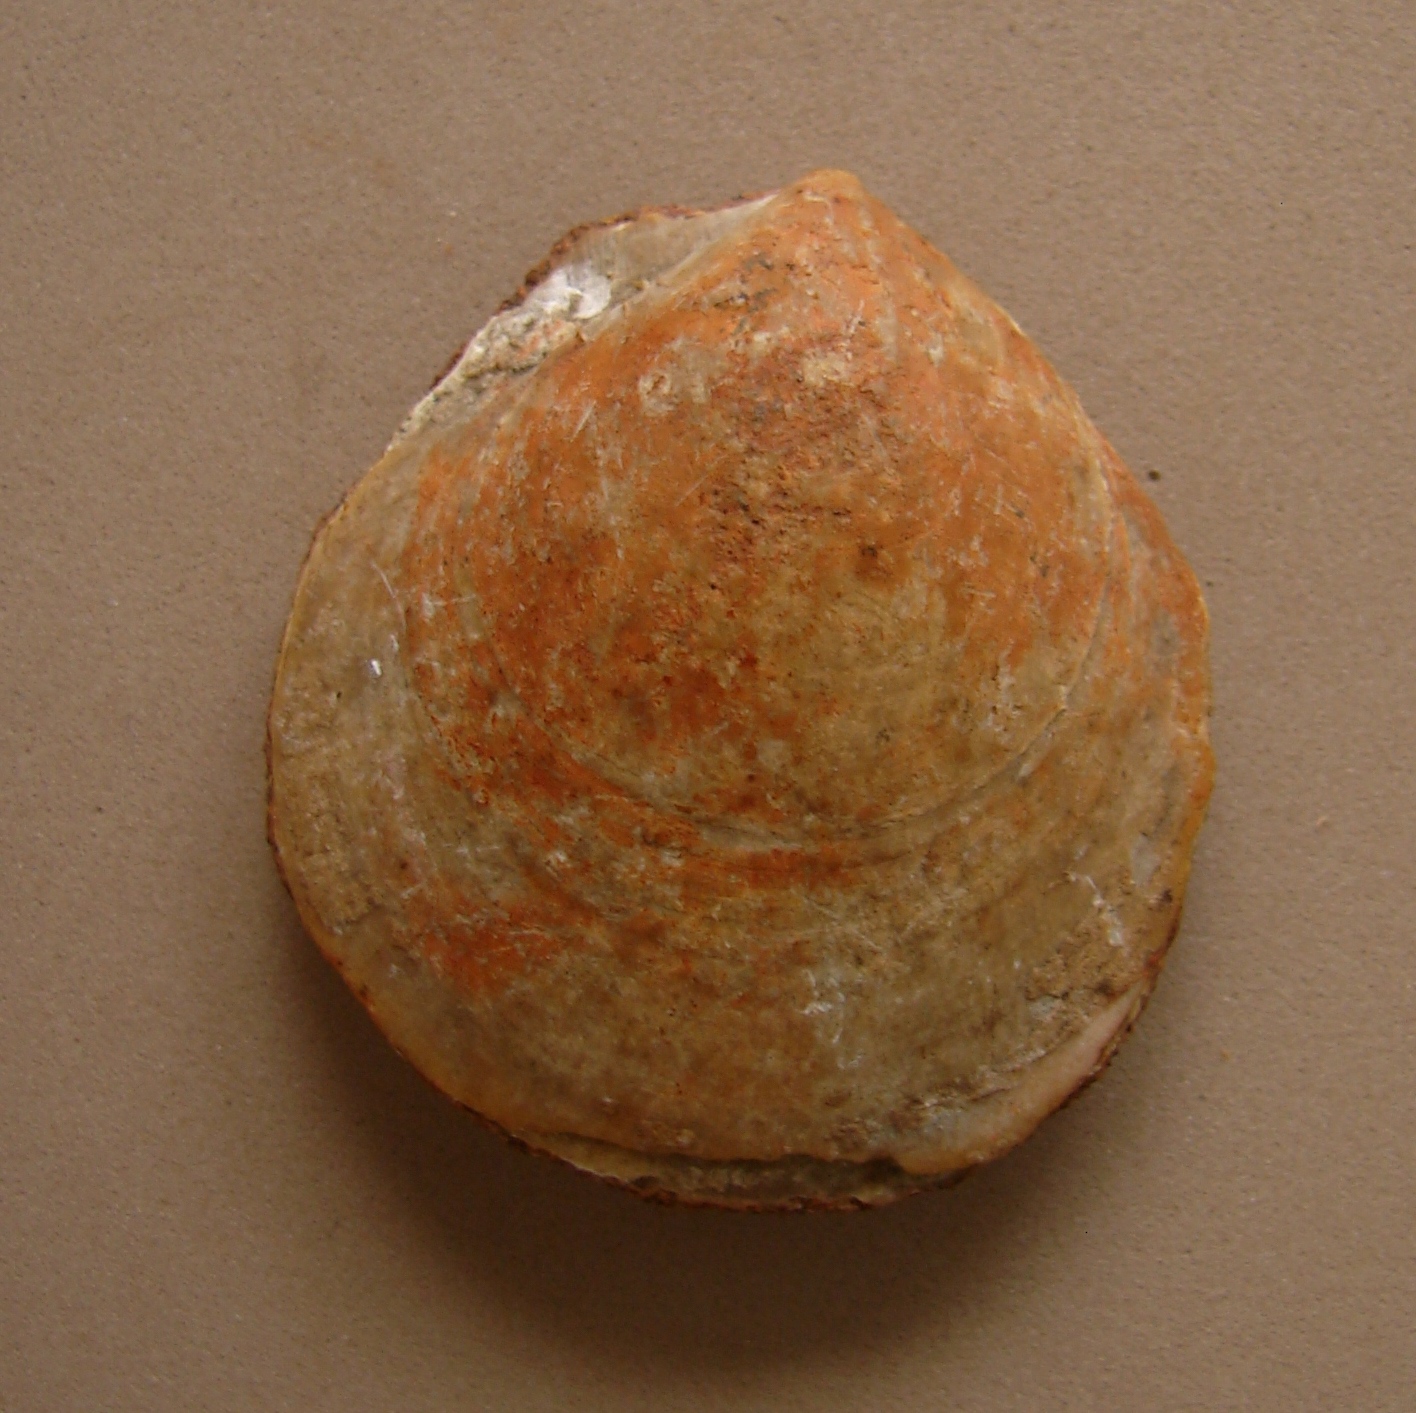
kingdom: Animalia
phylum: Mollusca
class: Bivalvia
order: Pectinida
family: Pectinidae
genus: Camptonectes
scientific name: Camptonectes auritus
